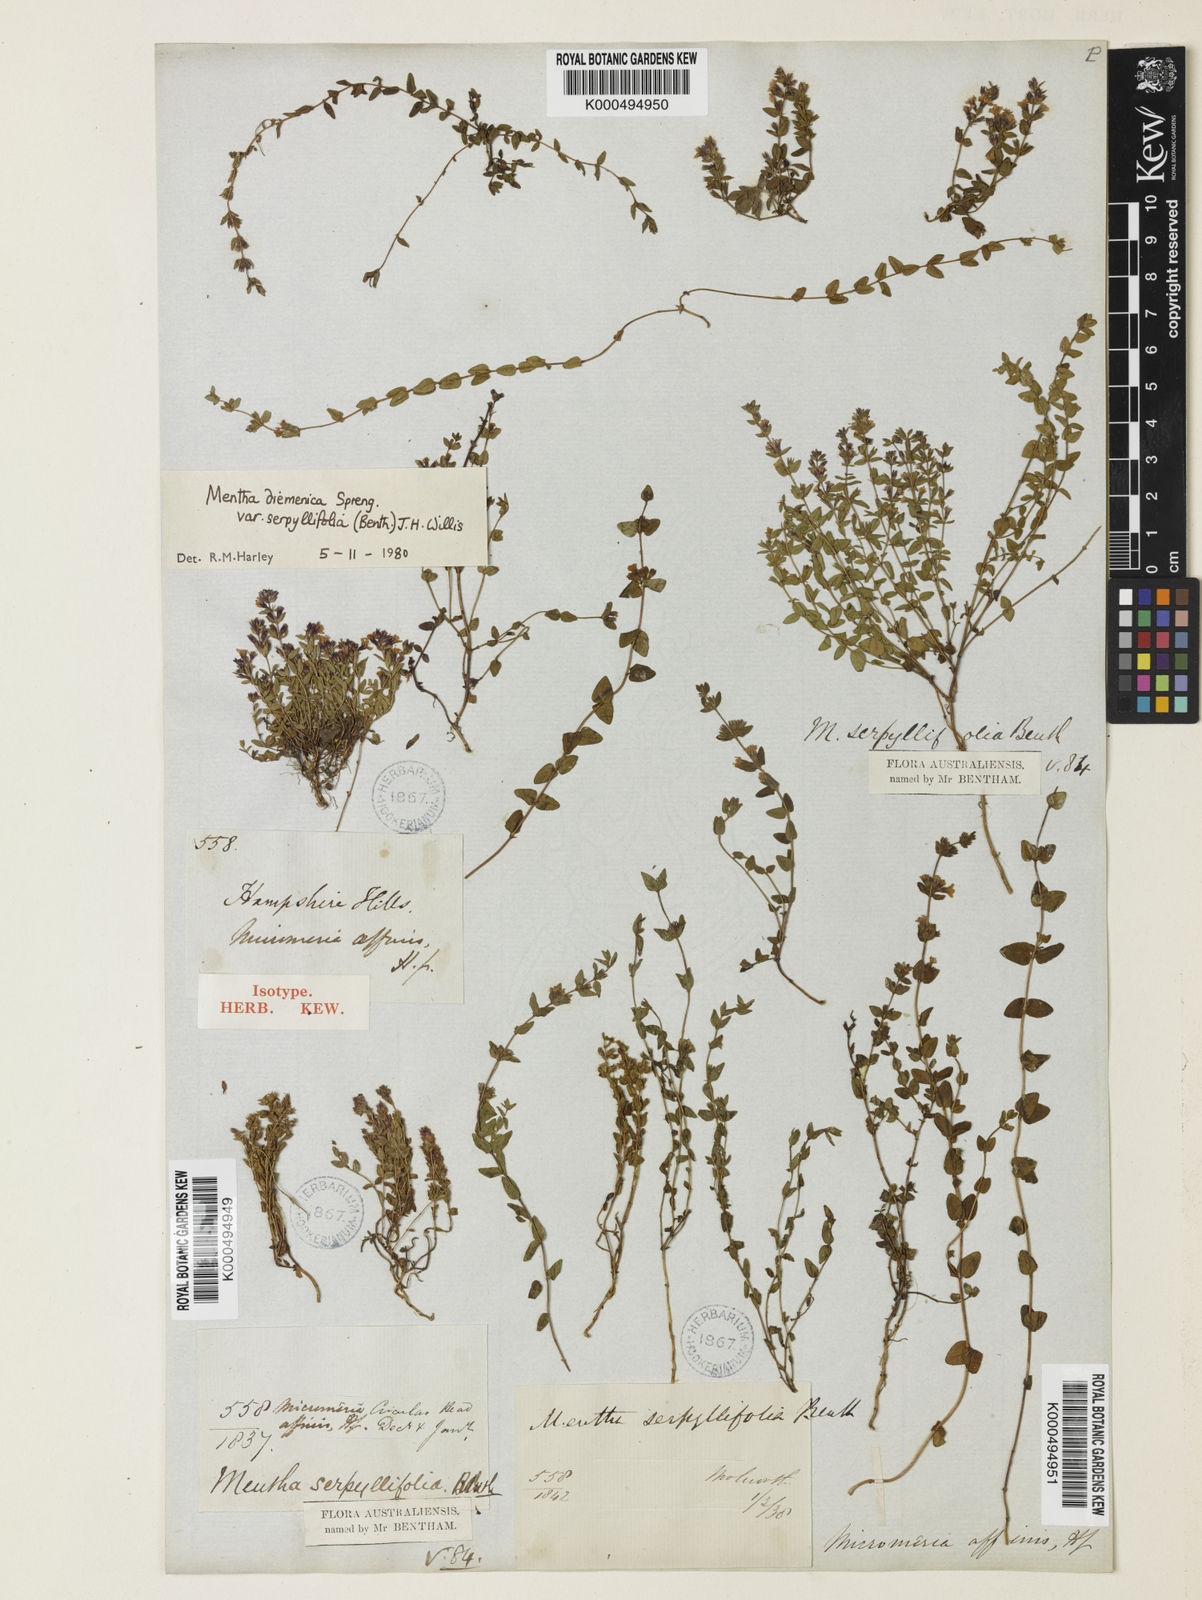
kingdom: Plantae
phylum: Tracheophyta
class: Magnoliopsida
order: Lamiales
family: Lamiaceae
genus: Mentha
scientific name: Mentha diemenica
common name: Wild mint
